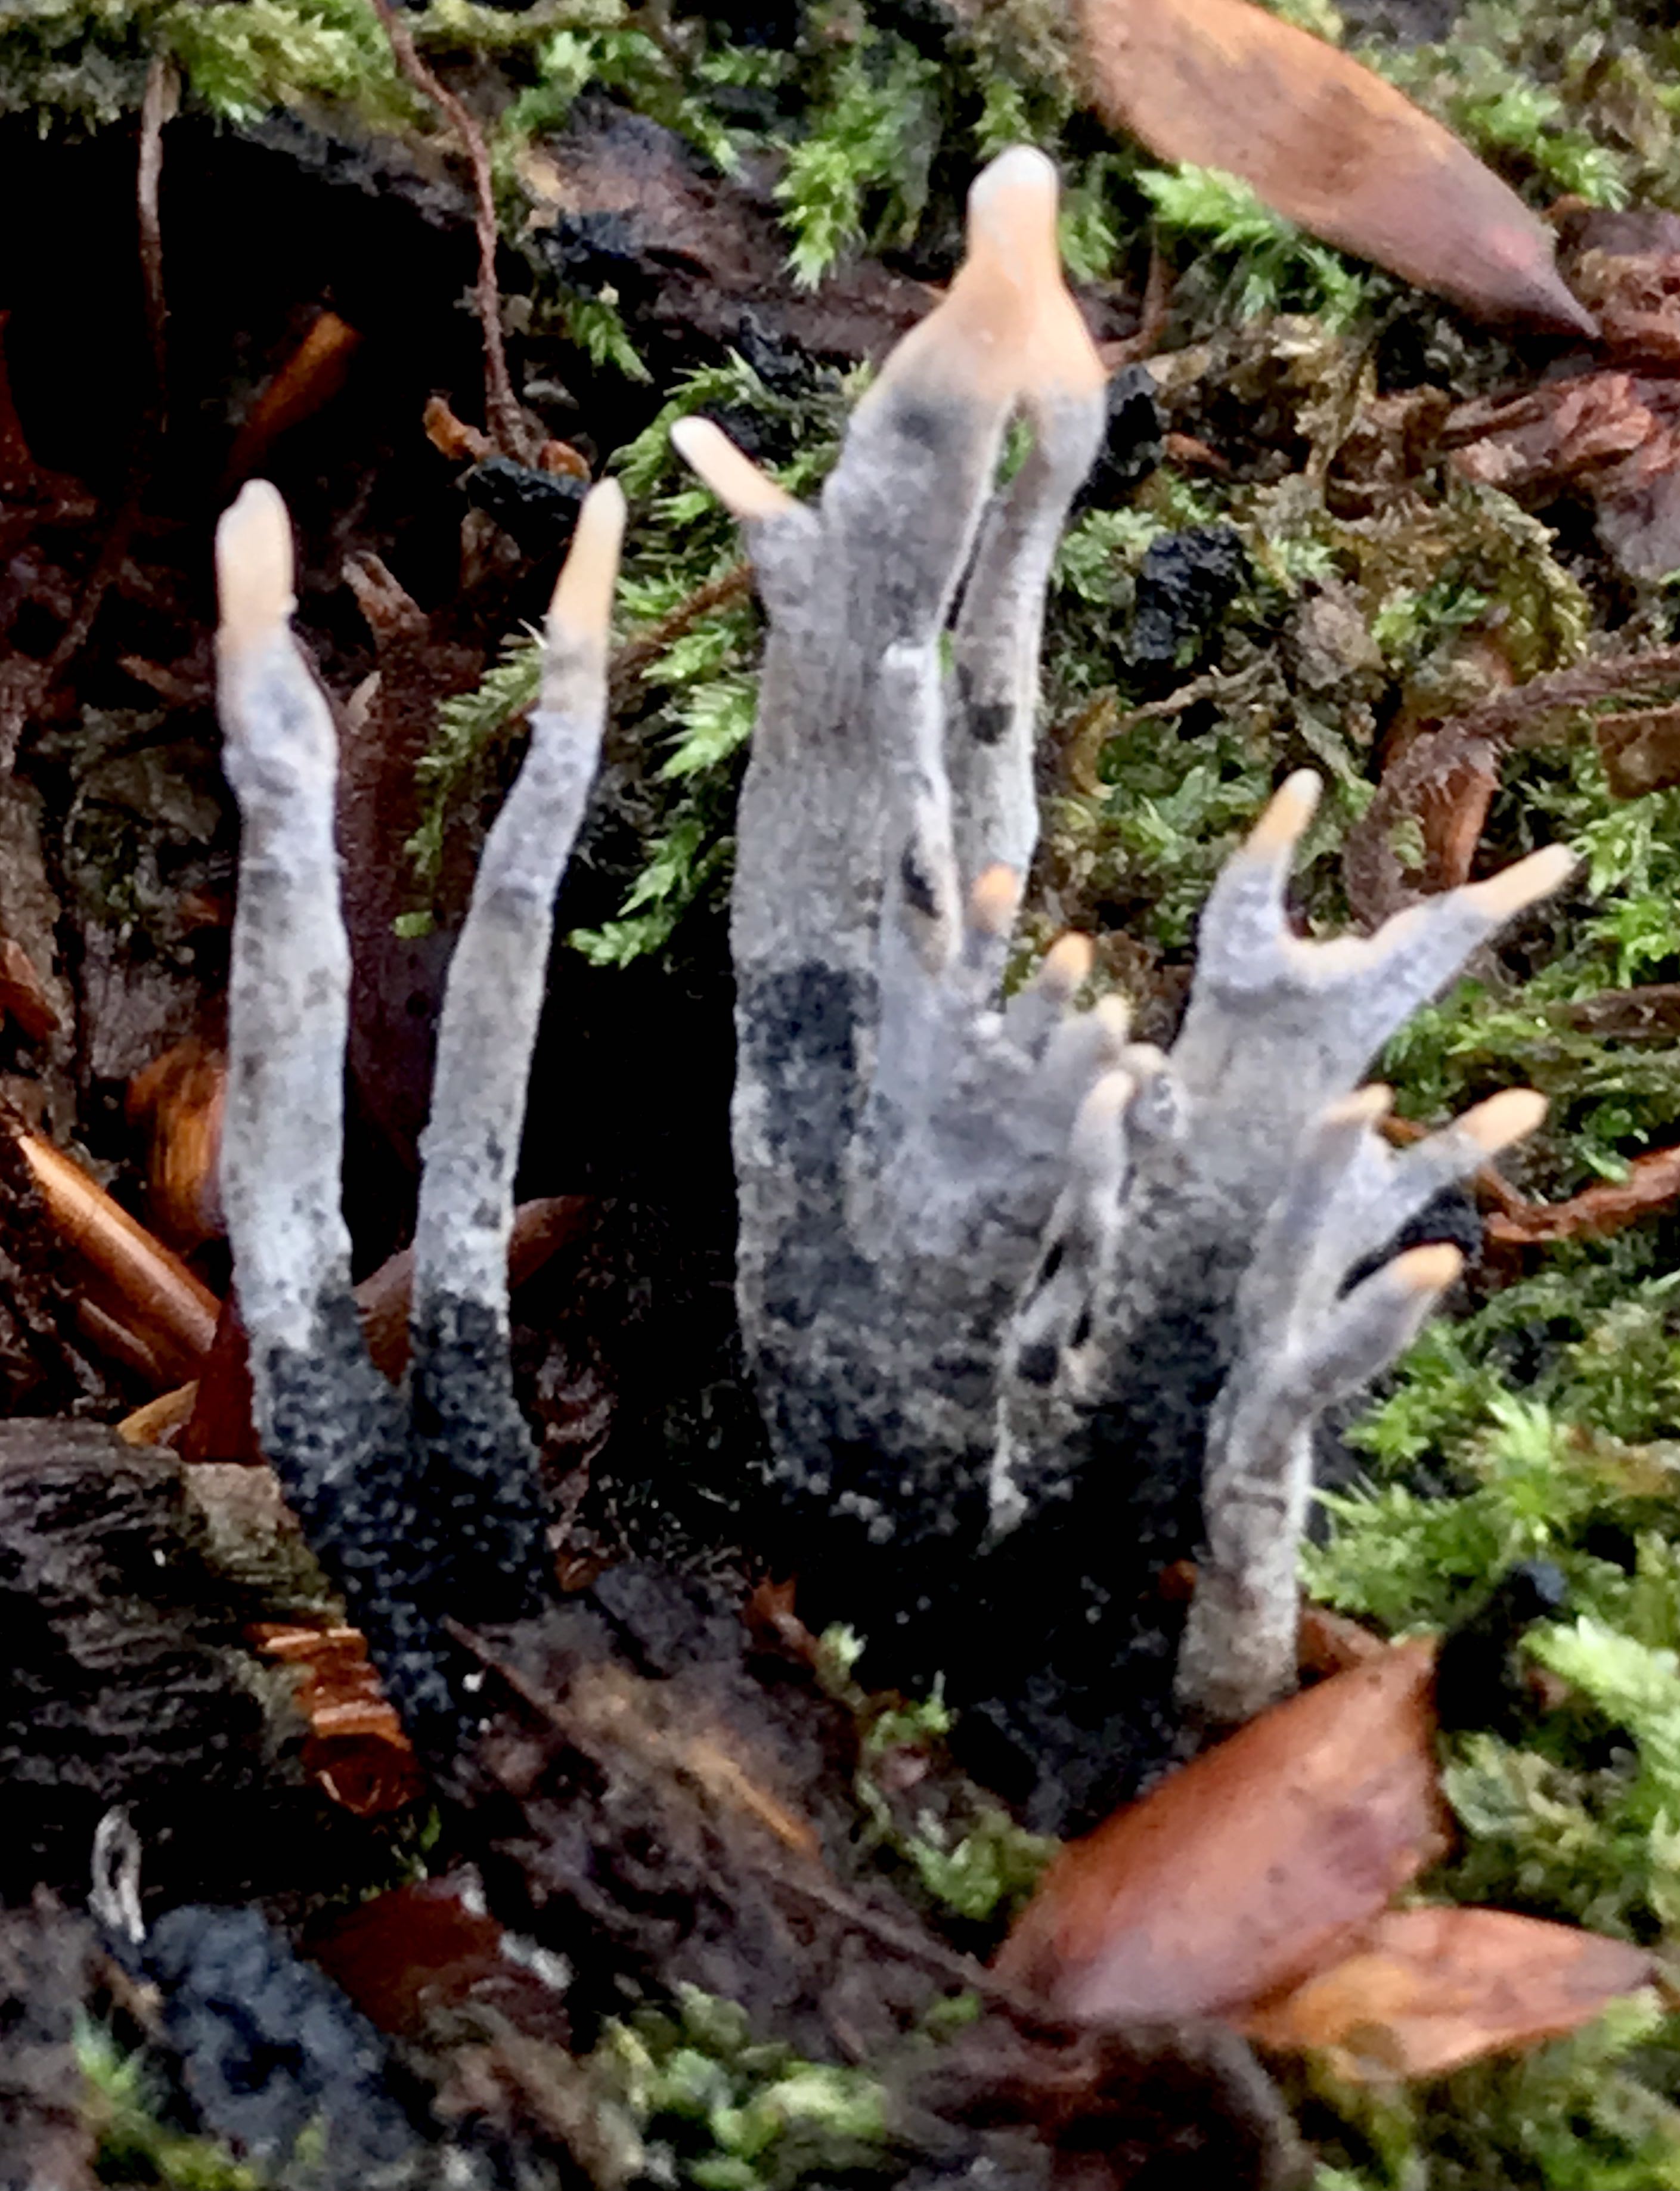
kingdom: Fungi
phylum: Ascomycota
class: Sordariomycetes
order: Xylariales
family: Xylariaceae
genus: Xylaria
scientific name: Xylaria hypoxylon
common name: grenet stødsvamp
